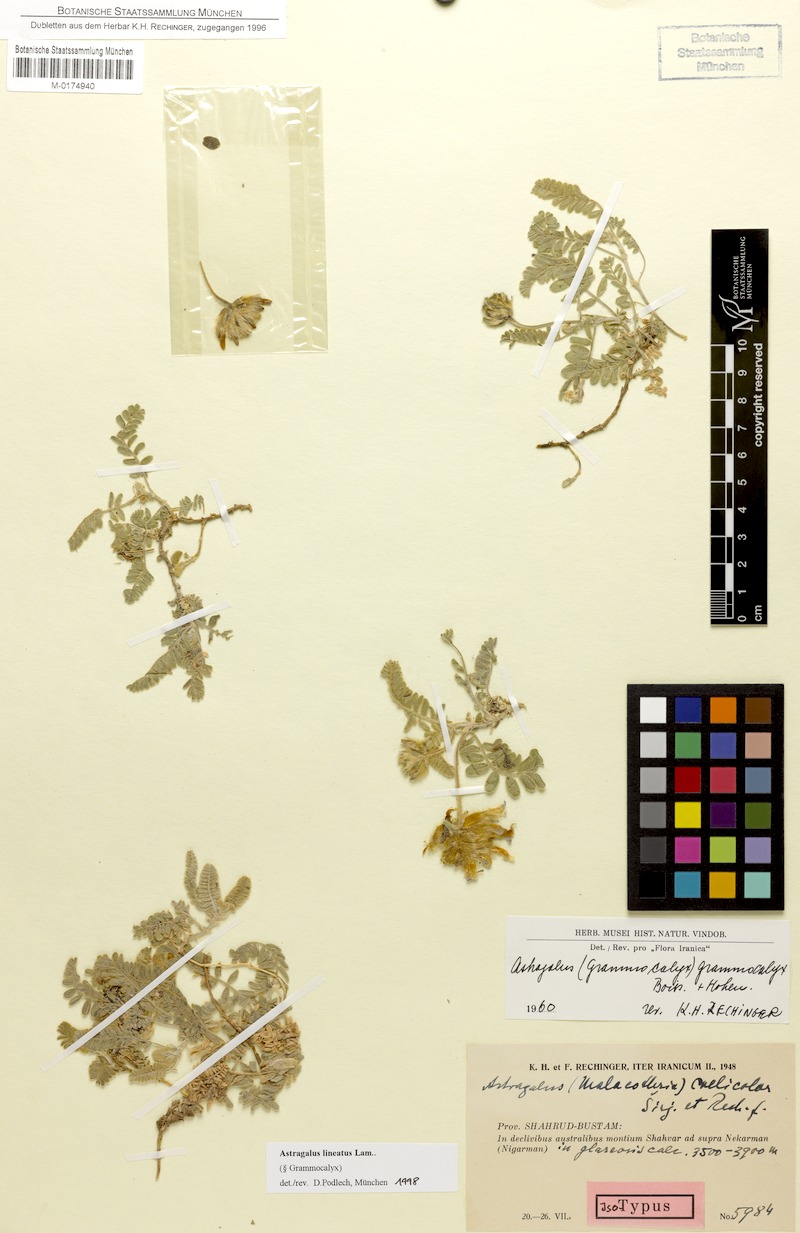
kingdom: Plantae
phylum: Tracheophyta
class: Magnoliopsida
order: Fabales
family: Fabaceae
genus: Astragalus
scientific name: Astragalus lineatus
